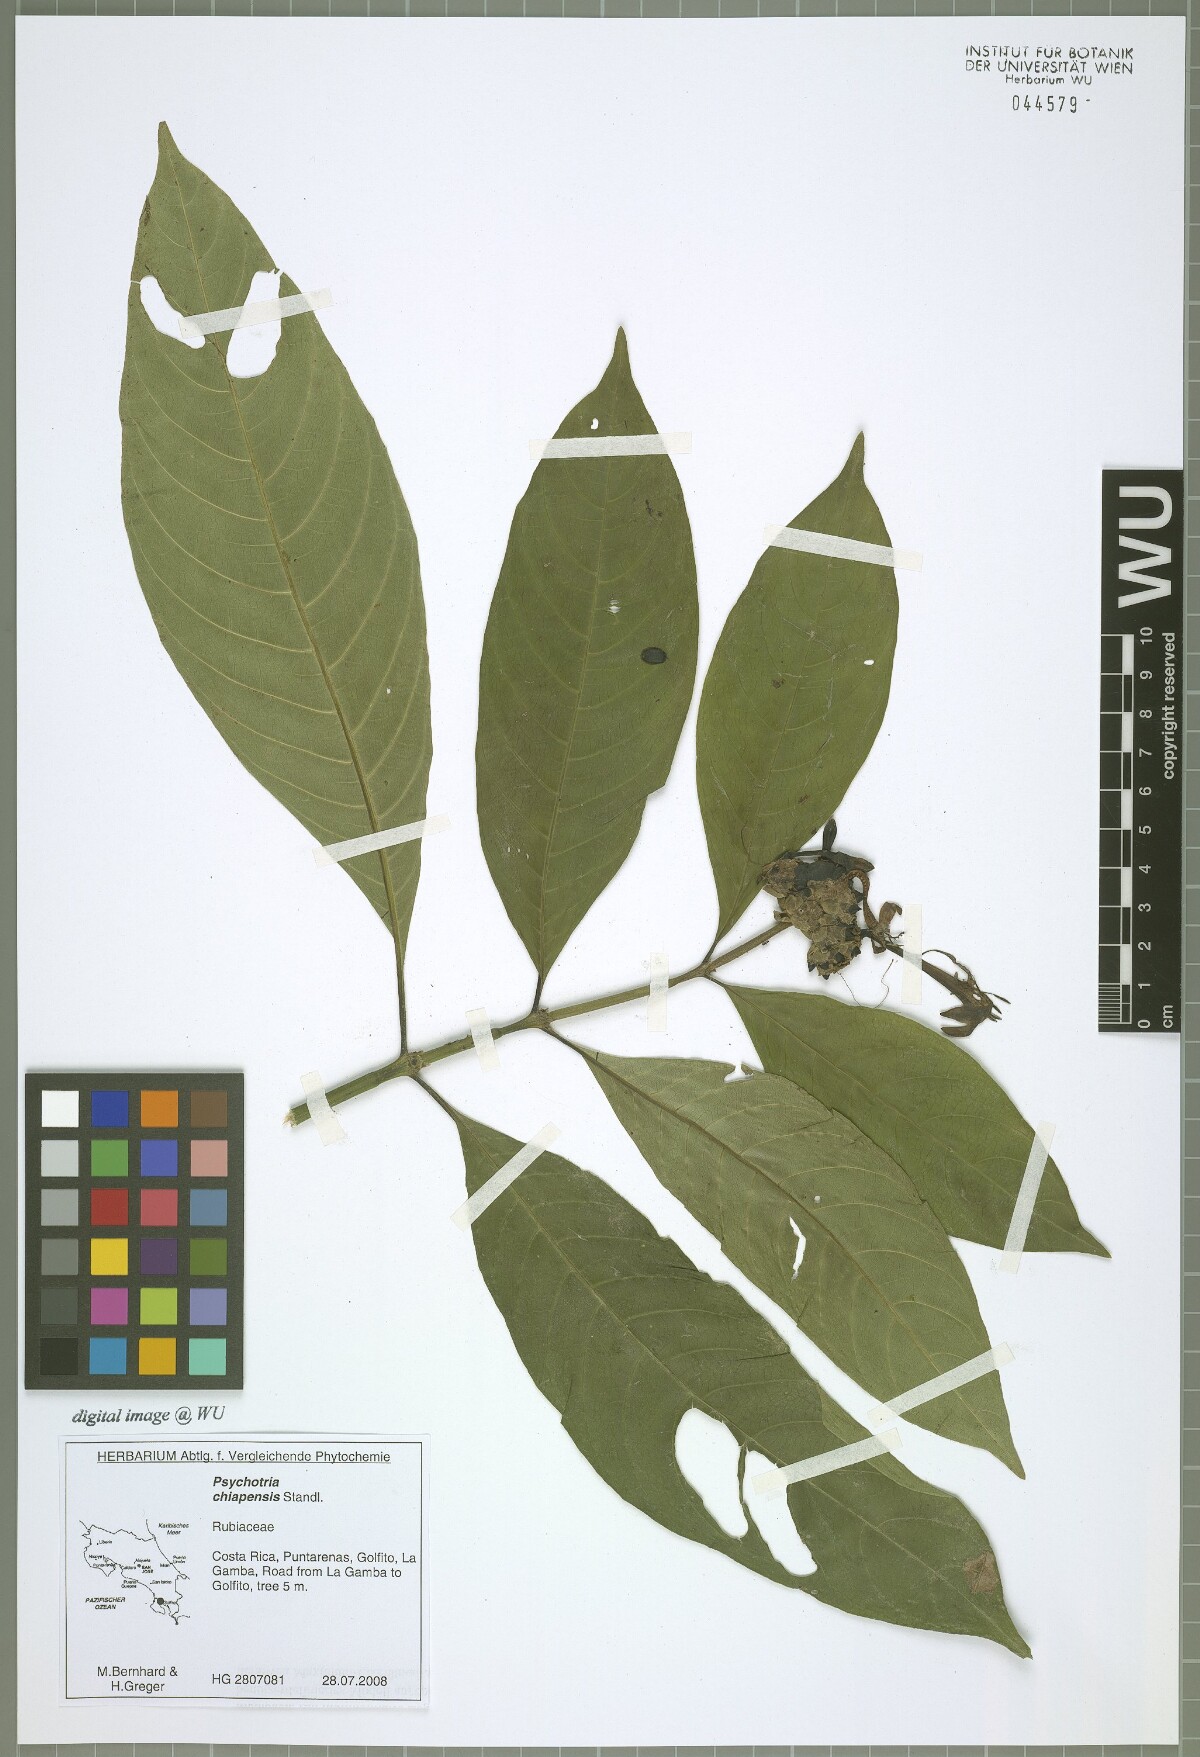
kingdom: Plantae
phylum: Tracheophyta
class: Magnoliopsida
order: Gentianales
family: Rubiaceae
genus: Palicourea
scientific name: Palicourea tetragona
